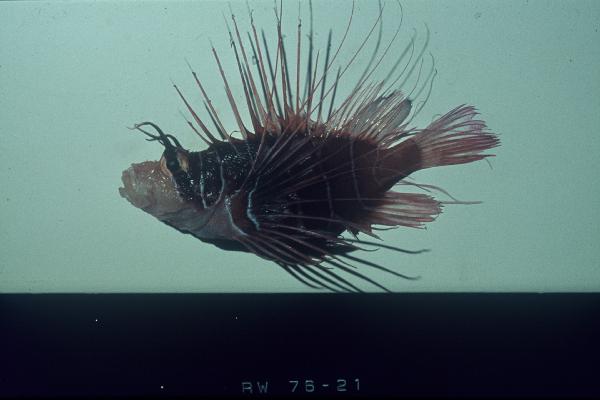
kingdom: Animalia
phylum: Chordata
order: Scorpaeniformes
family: Scorpaenidae
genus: Pterois
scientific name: Pterois radiata
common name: Radial firefish
